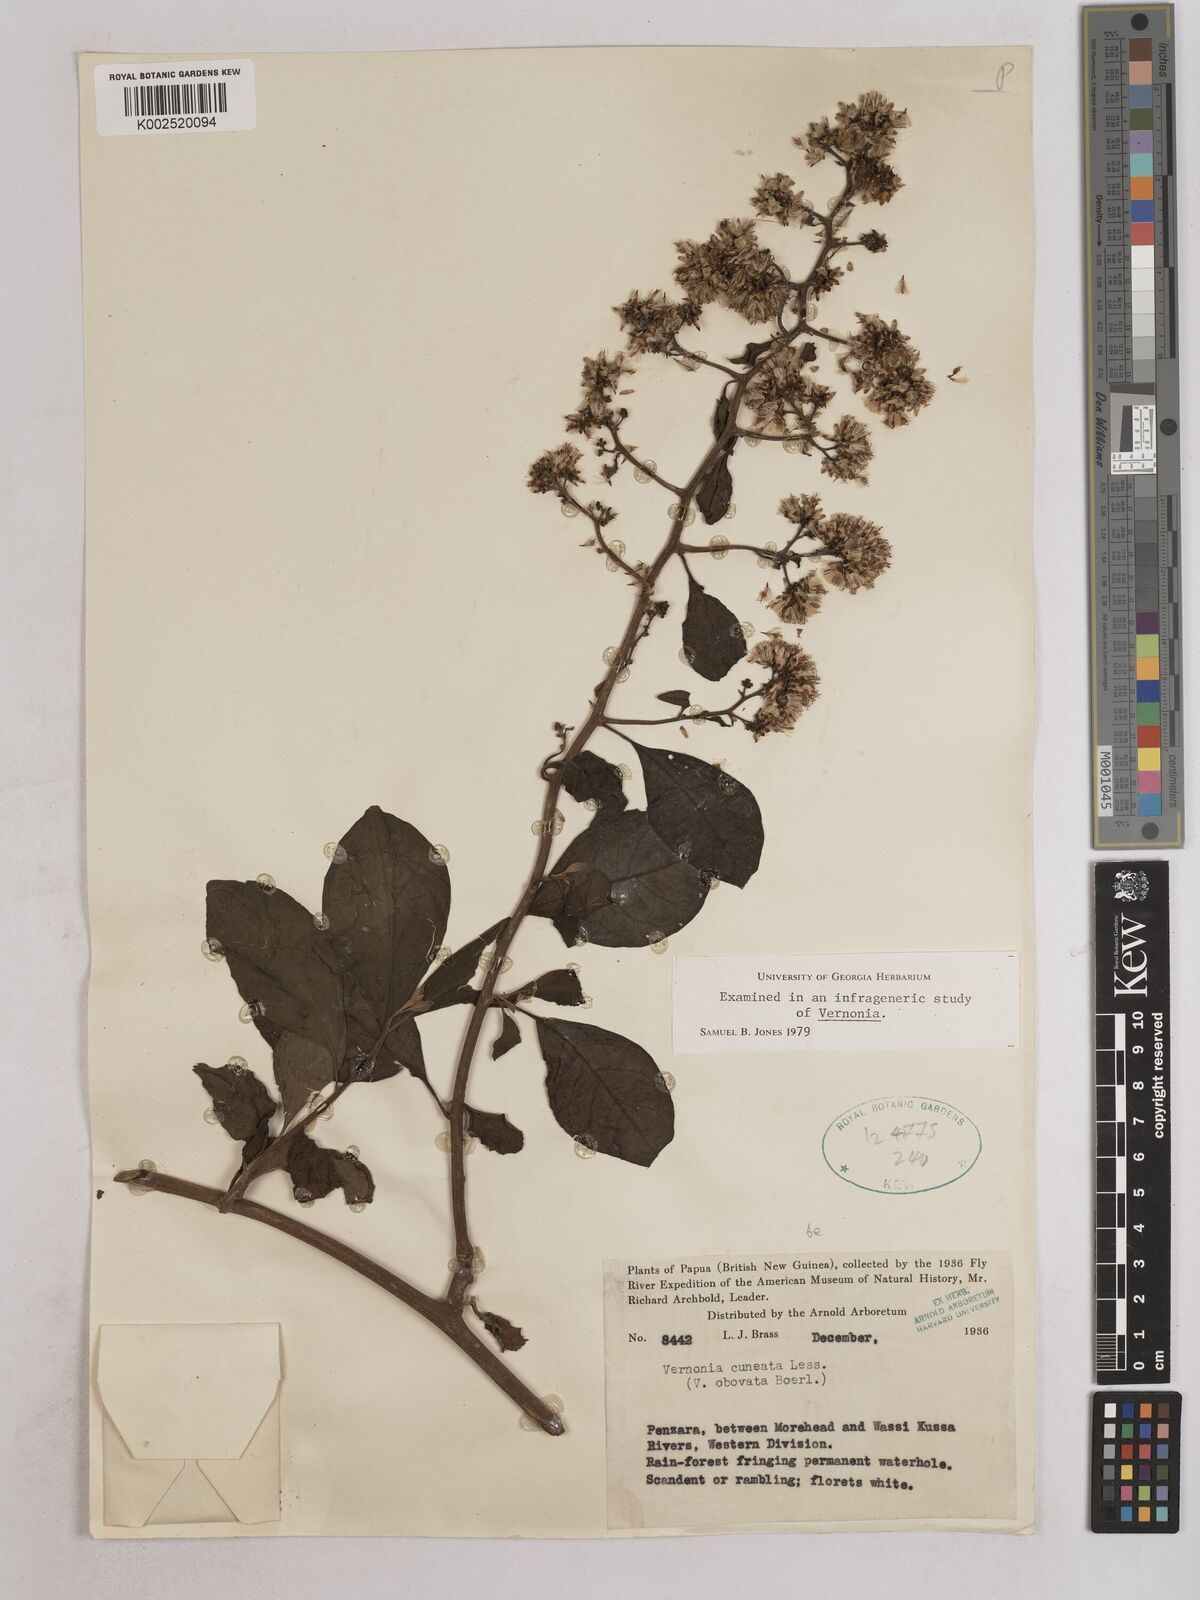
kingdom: Plantae
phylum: Tracheophyta
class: Magnoliopsida
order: Asterales
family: Asteraceae
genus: Decaneuropsis
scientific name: Decaneuropsis obovata
